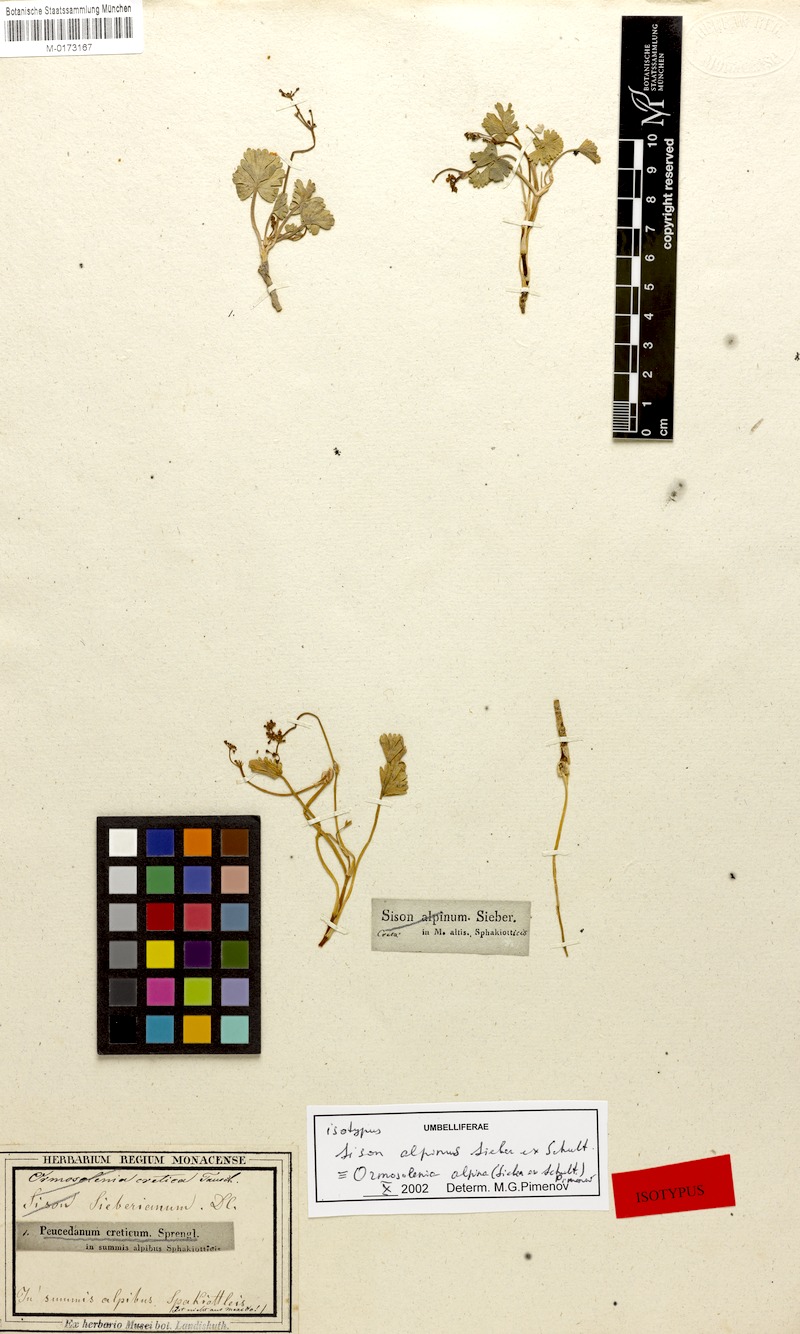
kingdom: Plantae
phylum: Tracheophyta
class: Magnoliopsida
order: Apiales
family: Apiaceae
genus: Ormosolenia
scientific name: Ormosolenia alpina
